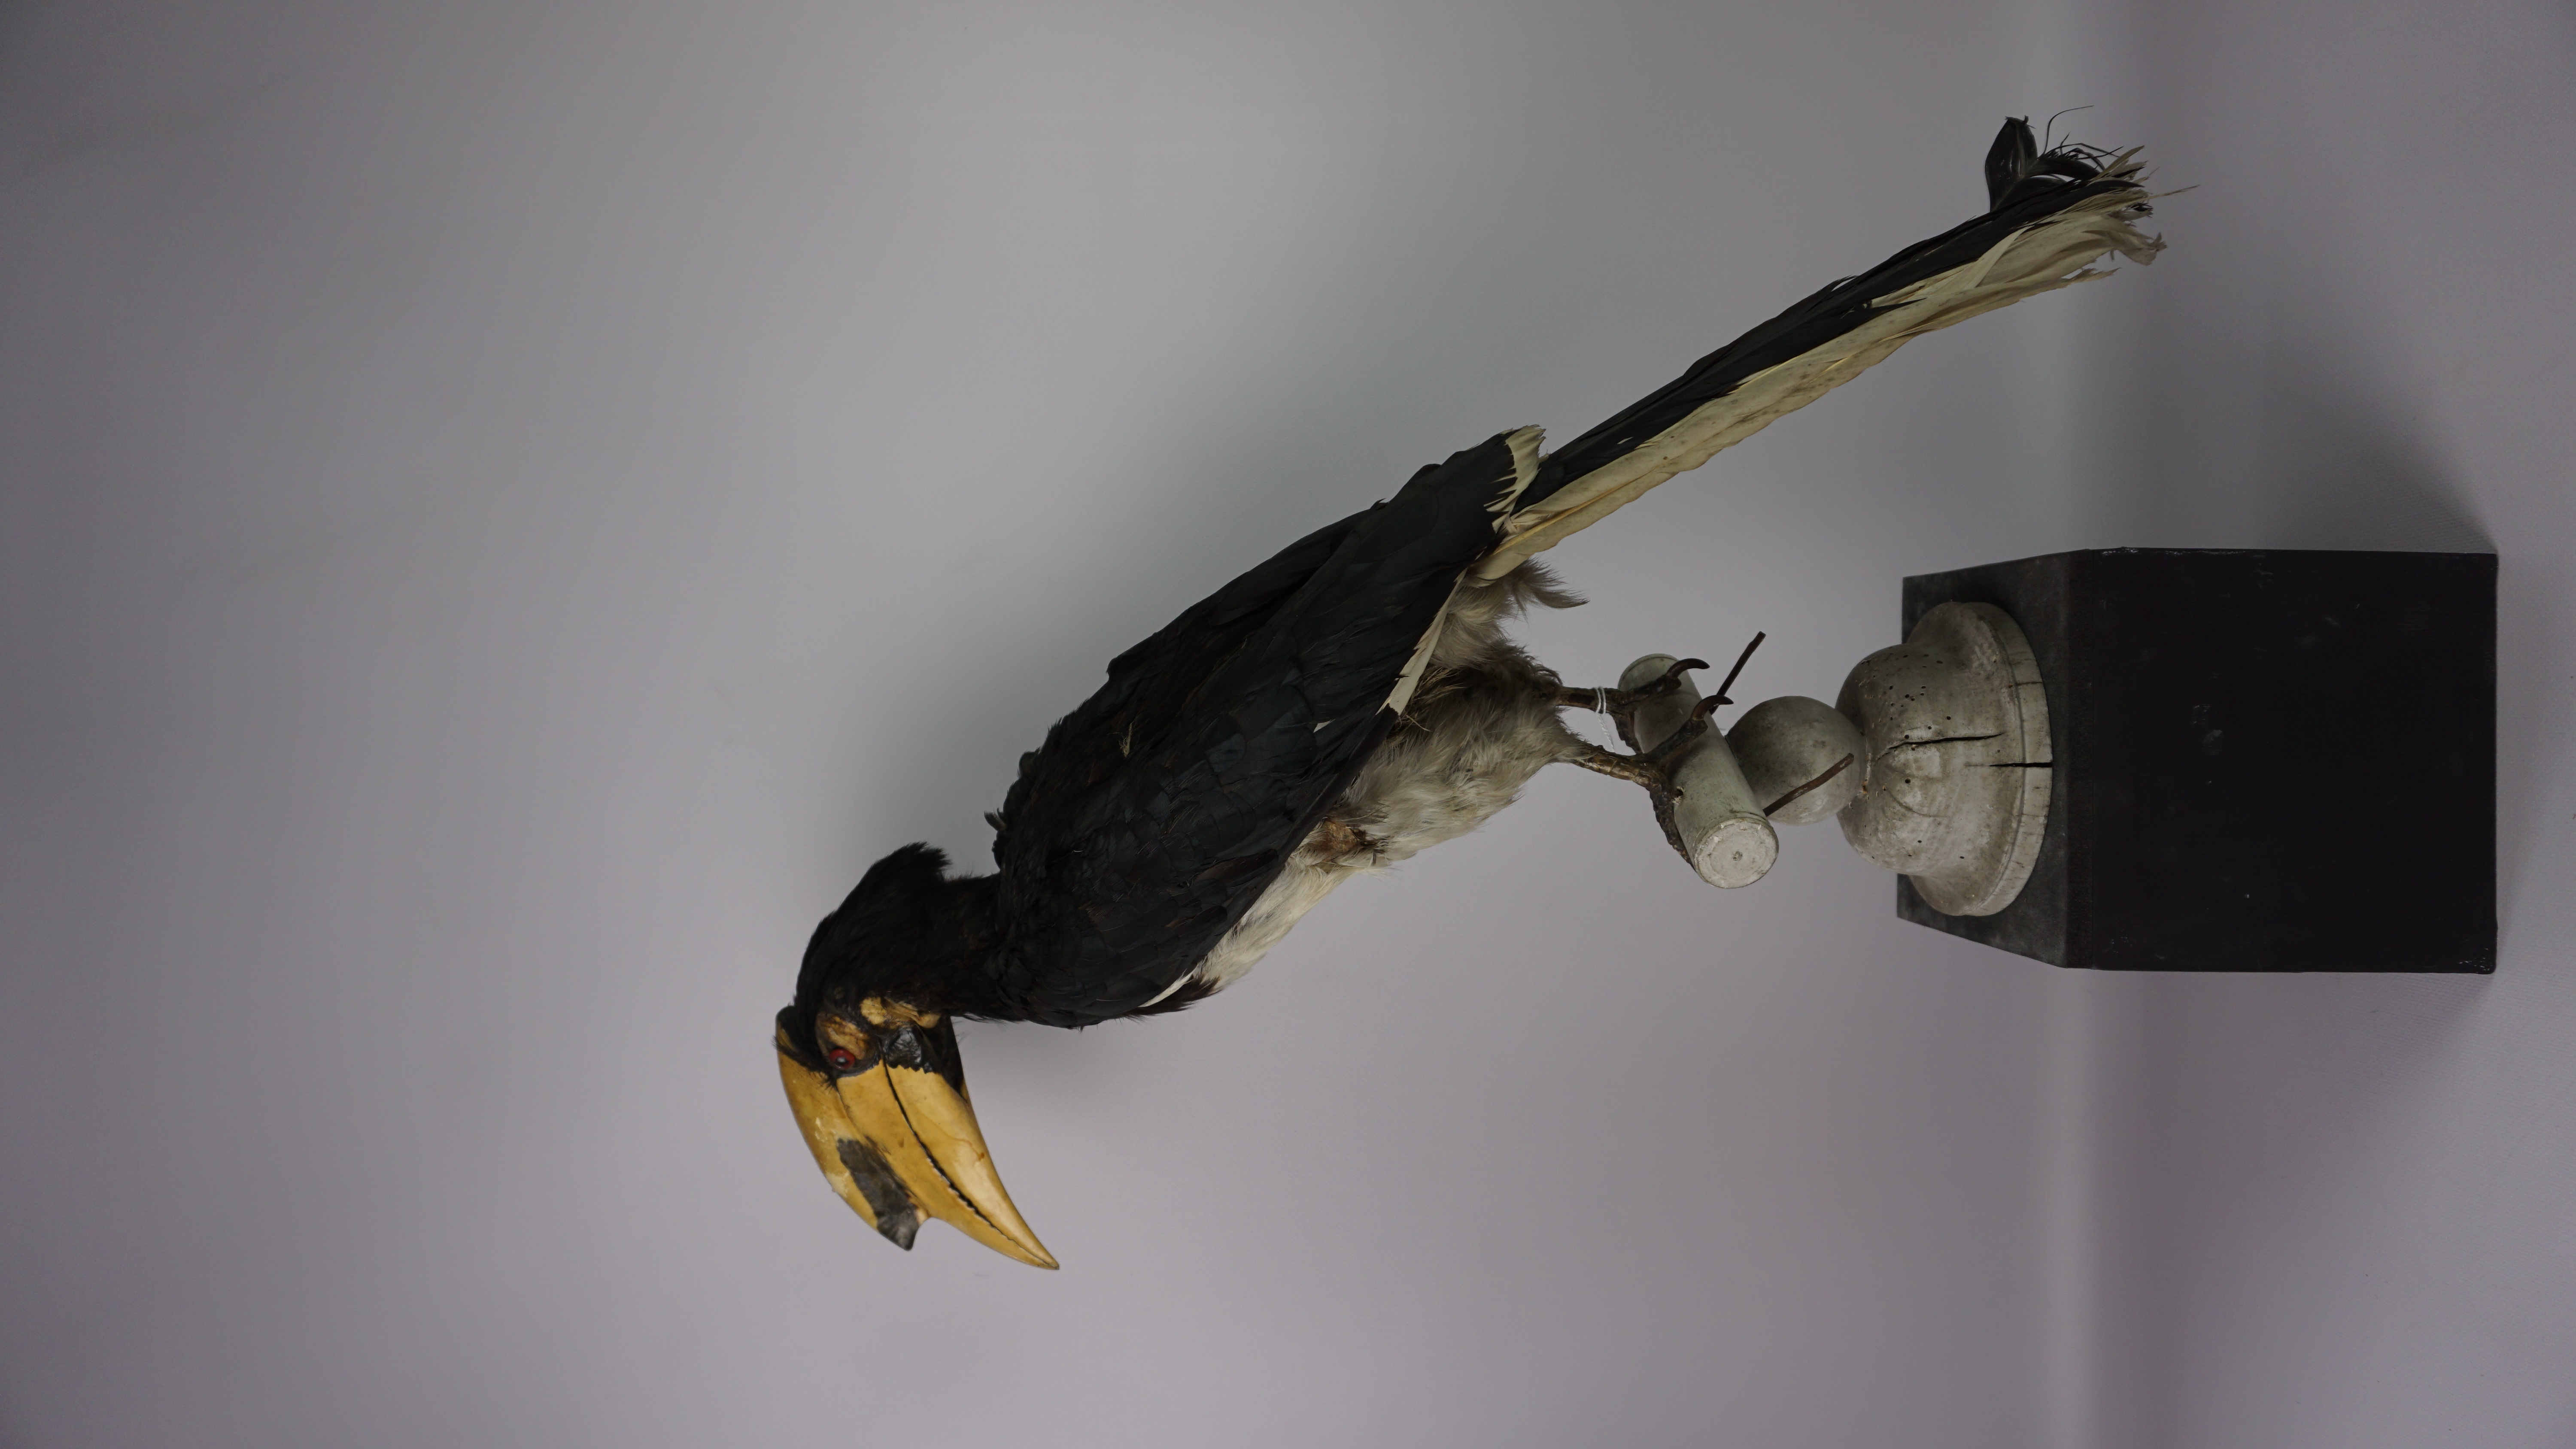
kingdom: Animalia
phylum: Chordata
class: Aves
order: Bucerotiformes
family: Bucerotidae
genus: Anthracoceros
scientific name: Anthracoceros albirostris
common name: Oriental pied-hornbill
